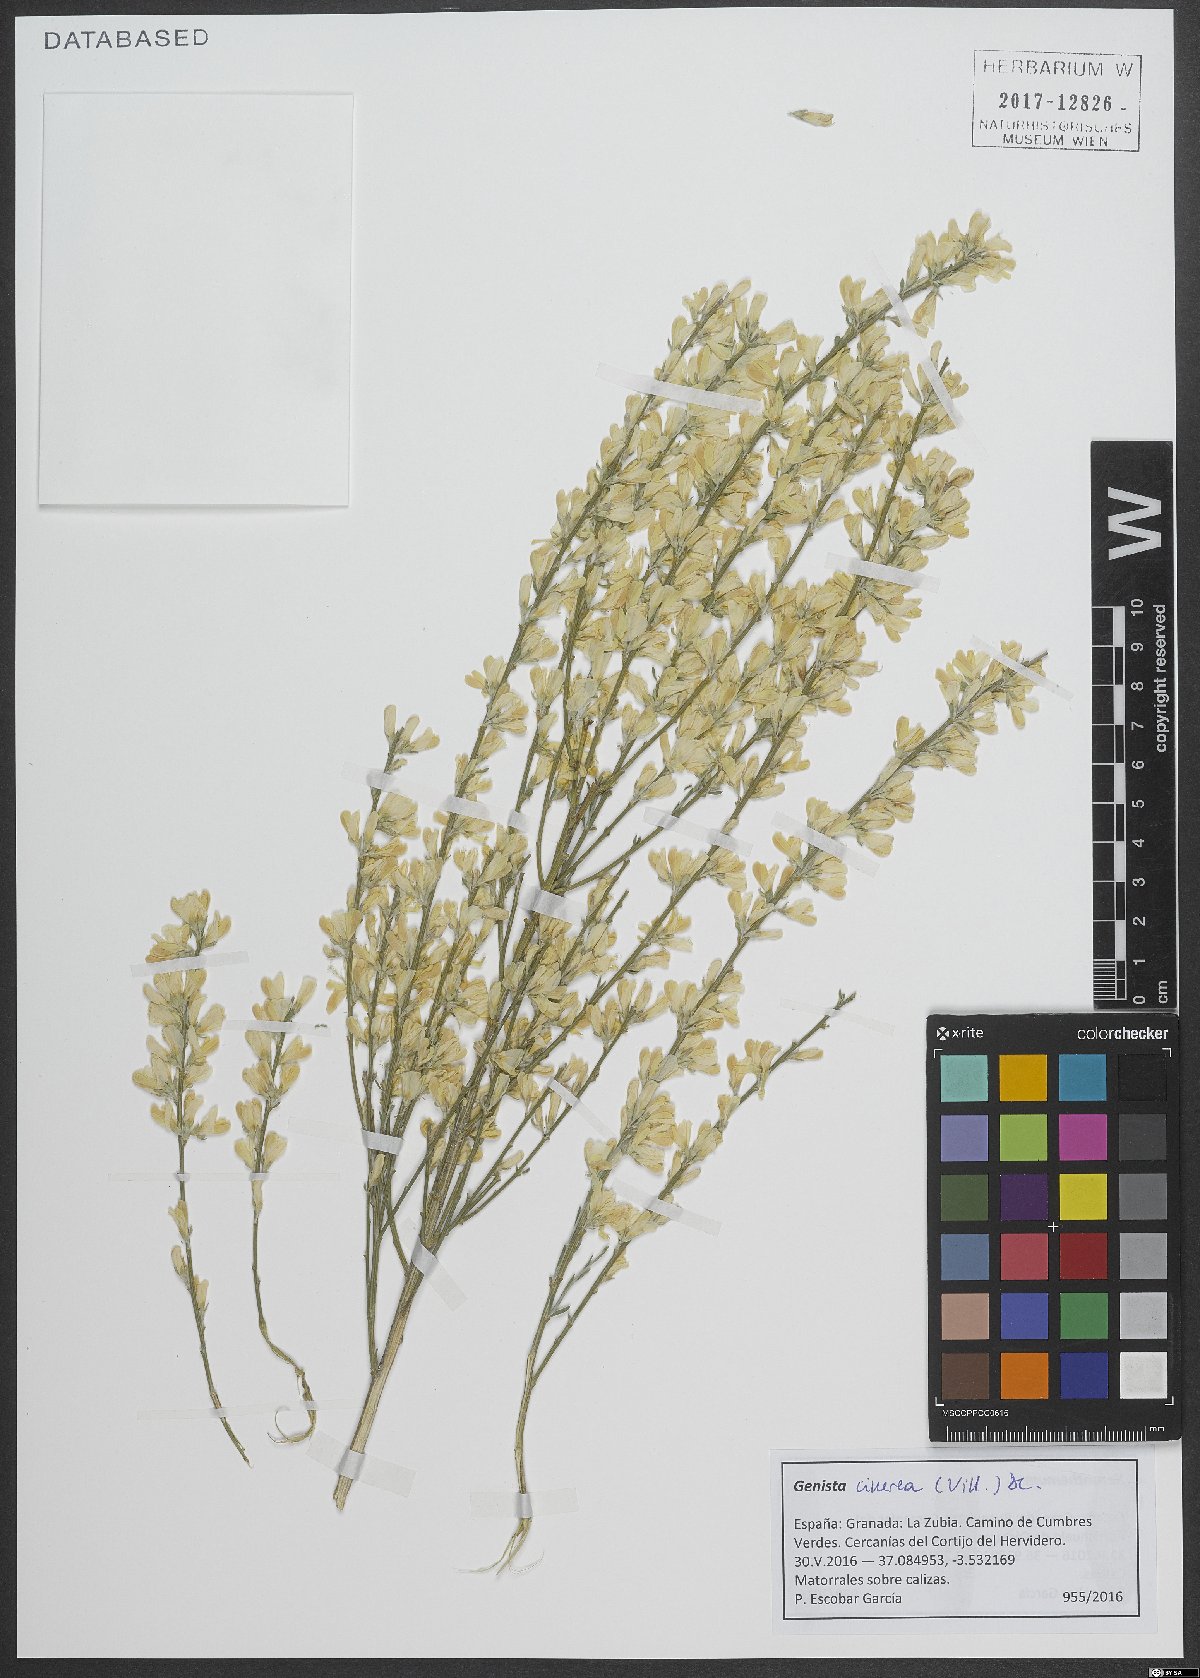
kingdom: Plantae
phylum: Tracheophyta
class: Magnoliopsida
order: Fabales
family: Fabaceae
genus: Genista
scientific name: Genista cinerea
